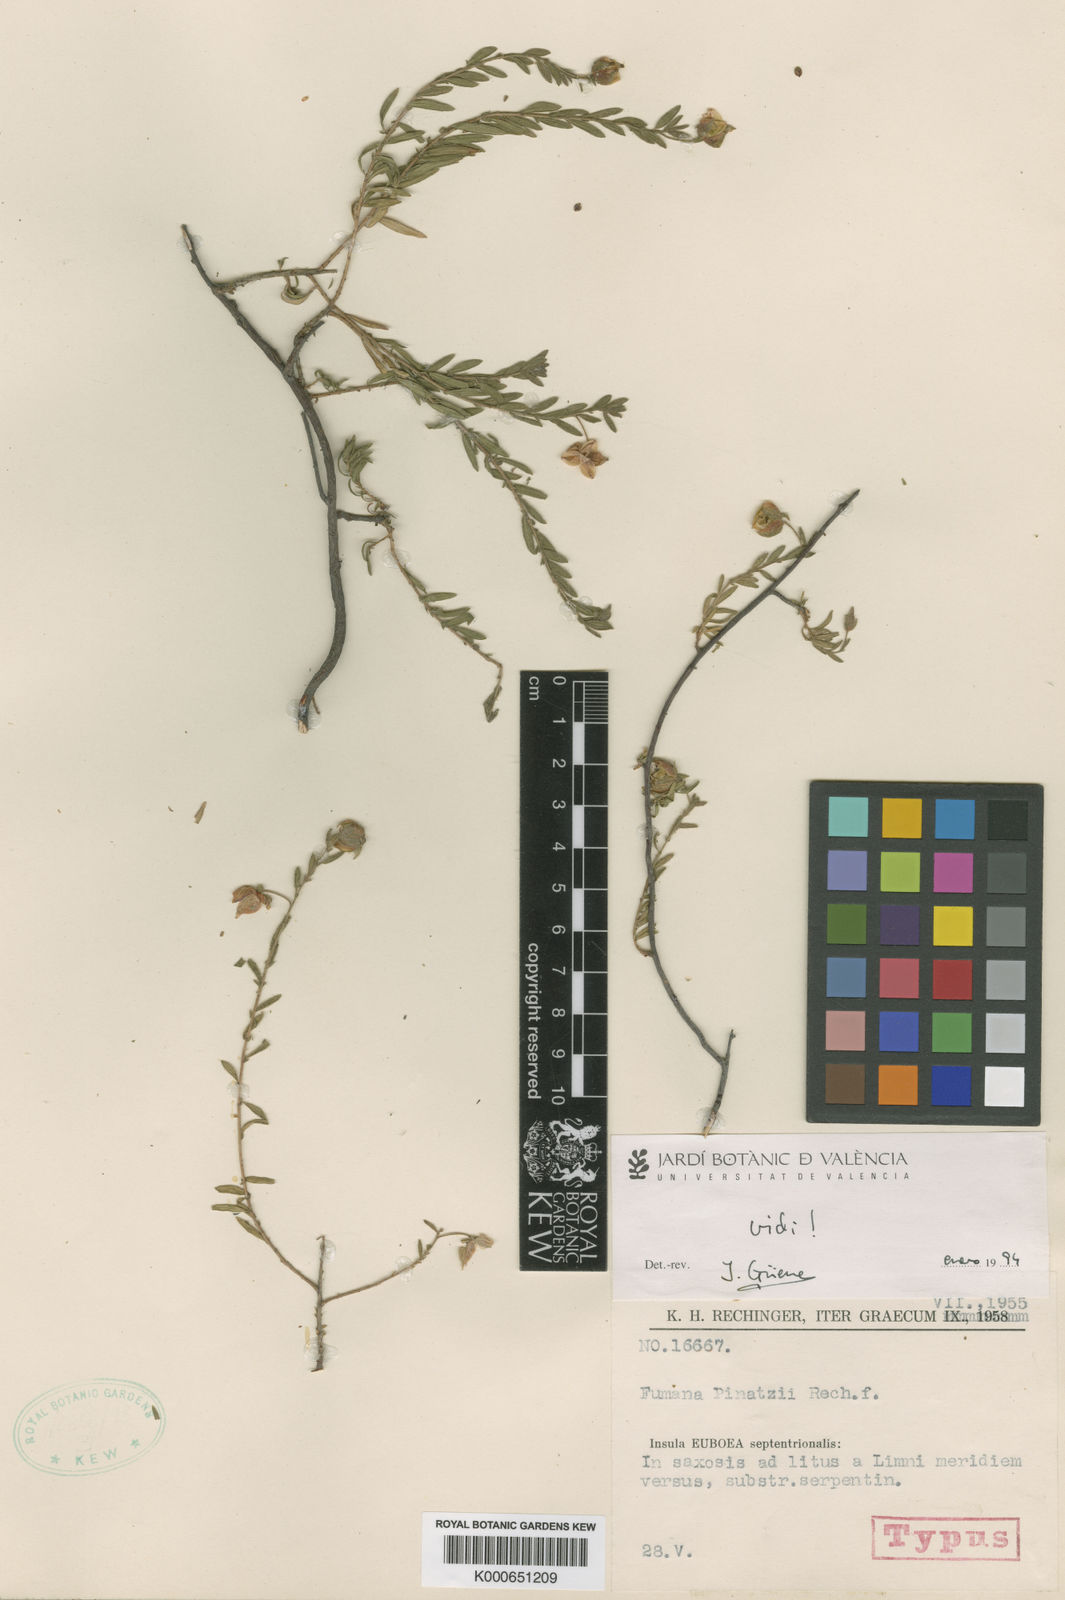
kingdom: Plantae
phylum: Tracheophyta
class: Magnoliopsida
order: Malvales
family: Cistaceae
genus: Fumana
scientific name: Fumana arabica
